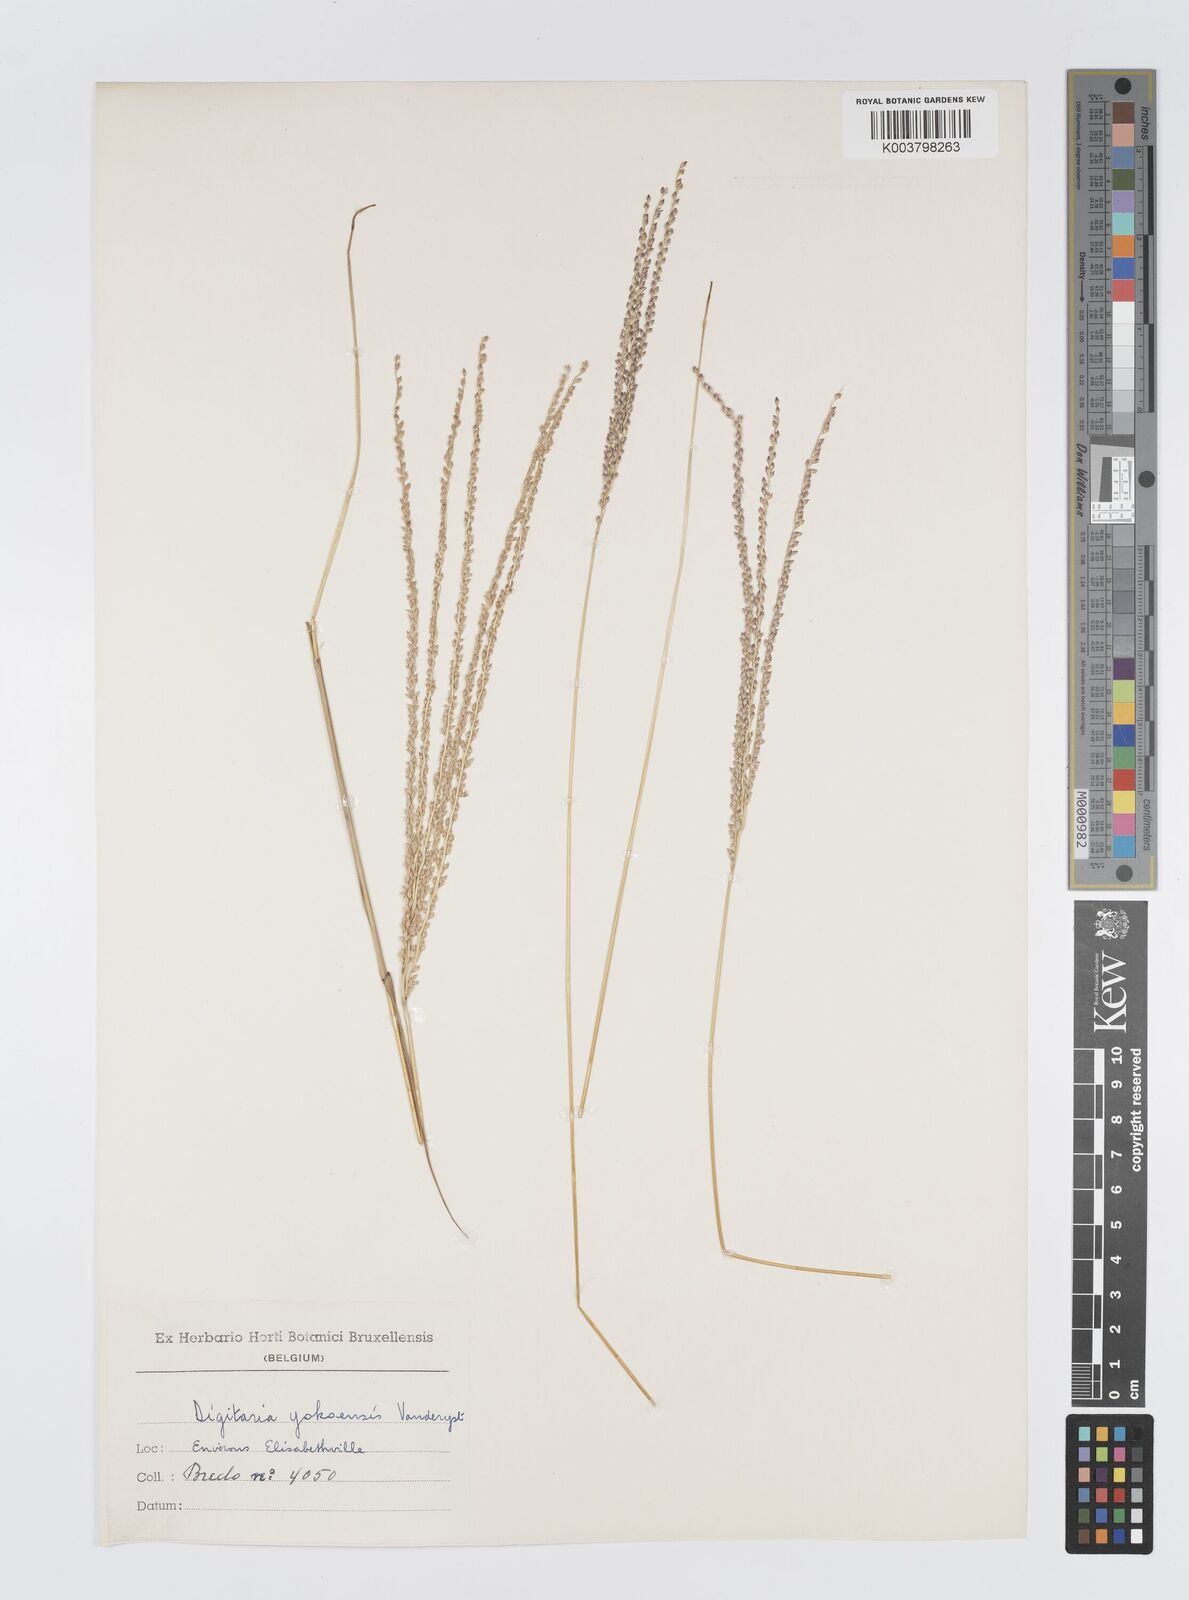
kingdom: Plantae
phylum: Tracheophyta
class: Liliopsida
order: Poales
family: Poaceae
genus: Digitaria
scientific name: Digitaria angolensis
